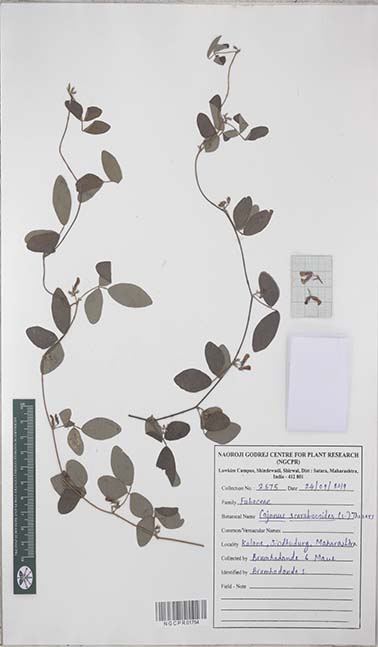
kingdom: Plantae
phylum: Tracheophyta
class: Magnoliopsida
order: Fabales
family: Fabaceae
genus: Cajanus
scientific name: Cajanus scarabaeoides
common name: Showy pigeonpea
